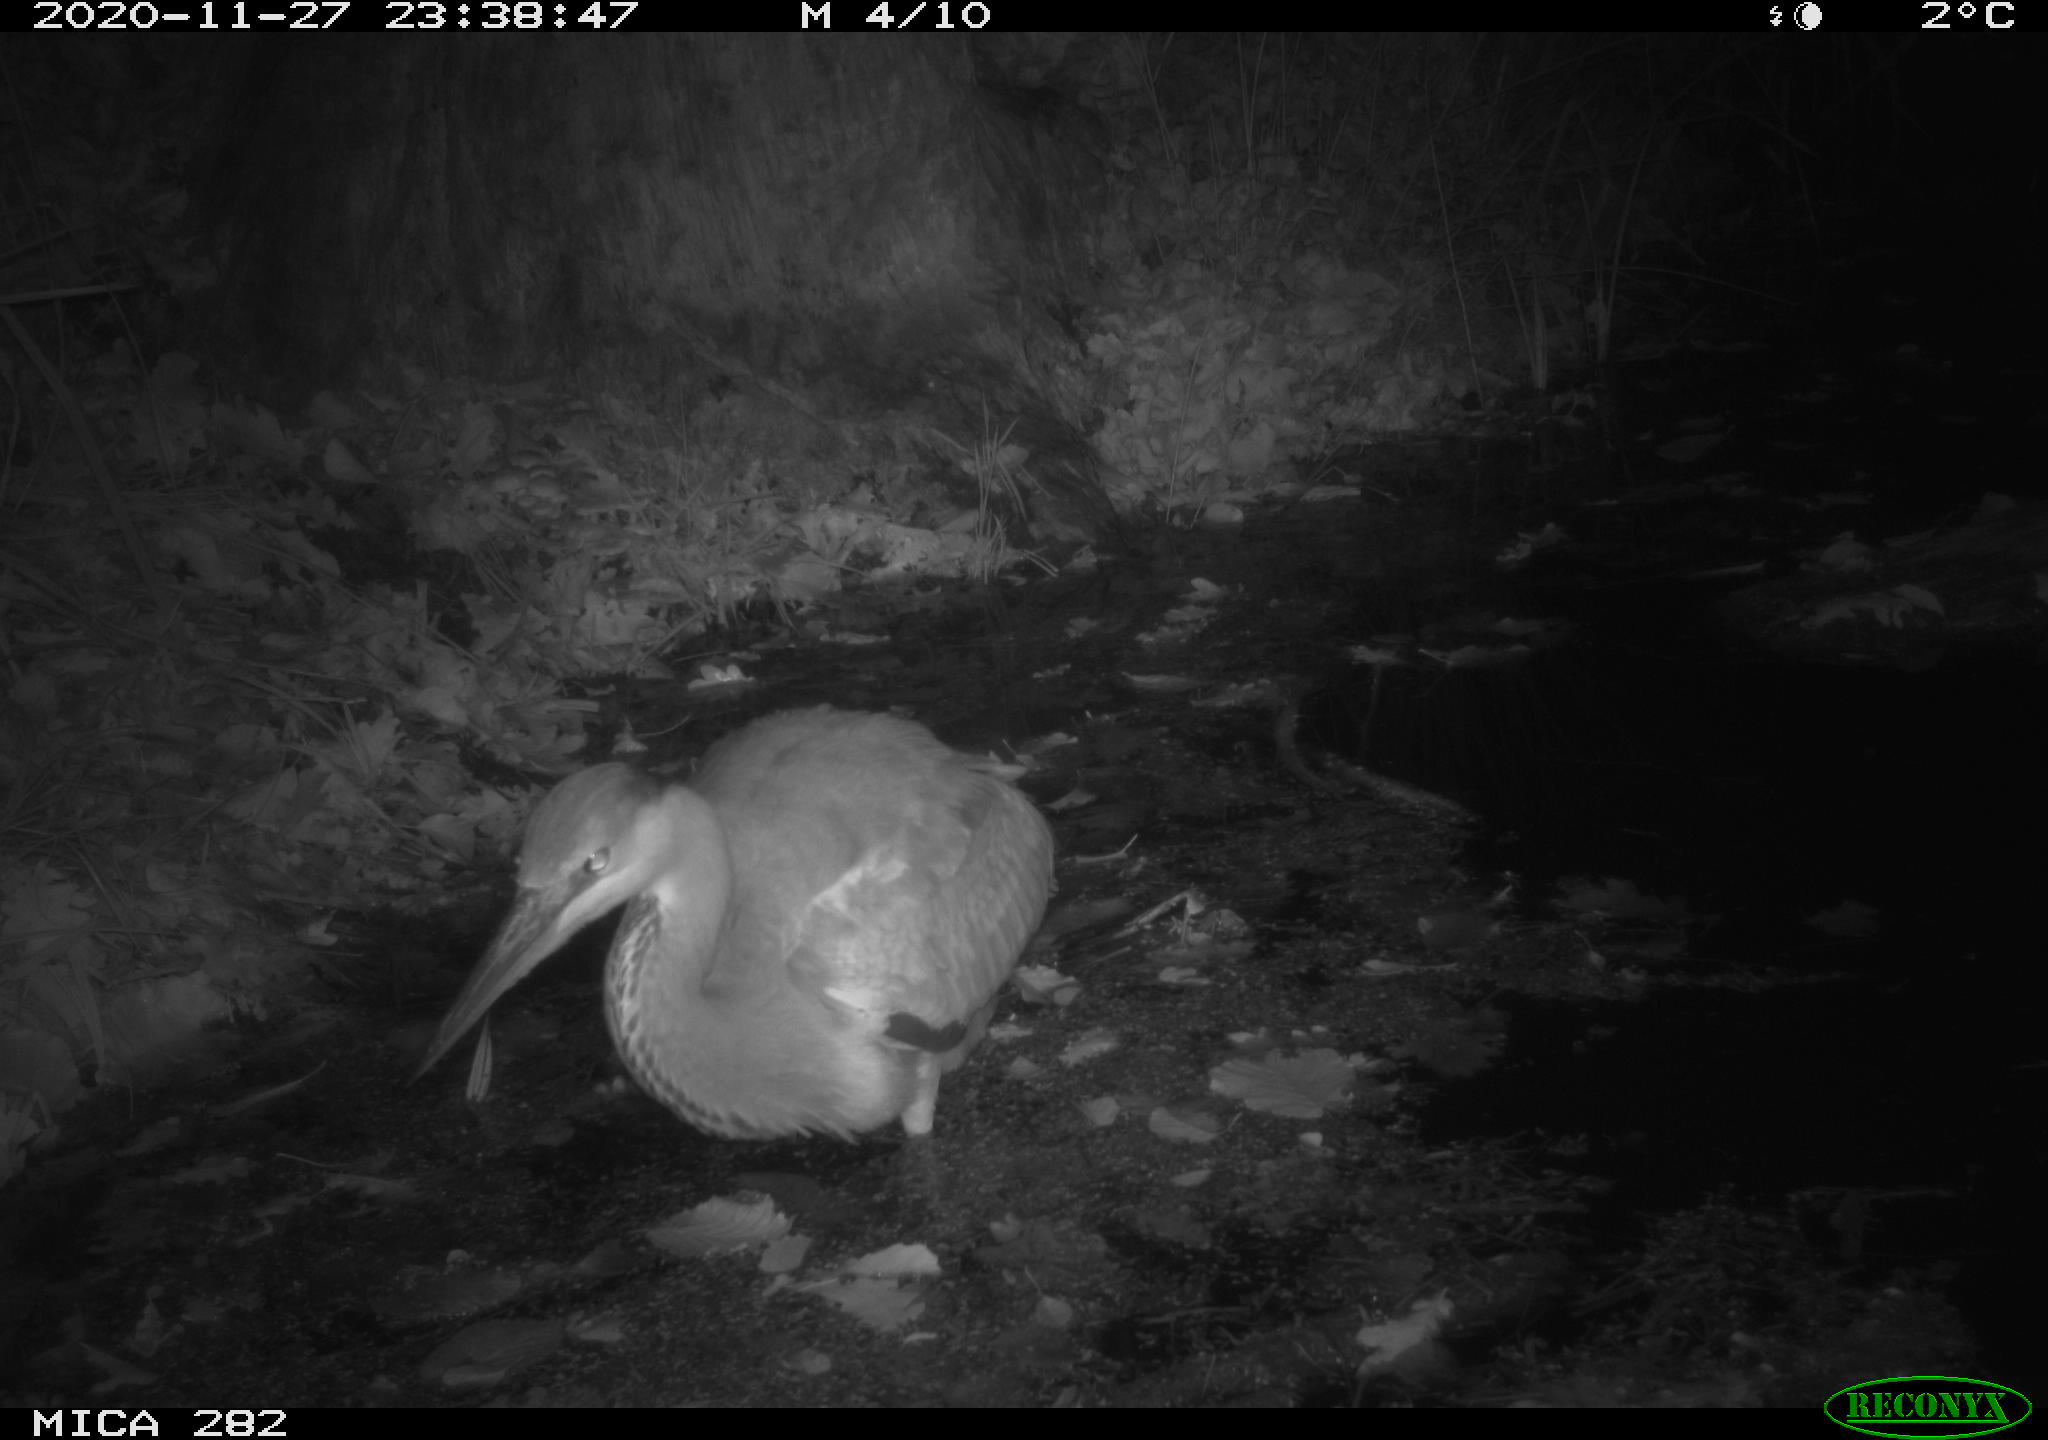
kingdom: Animalia
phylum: Chordata
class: Aves
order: Pelecaniformes
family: Ardeidae
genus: Ardea
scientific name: Ardea cinerea
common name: Grey heron
